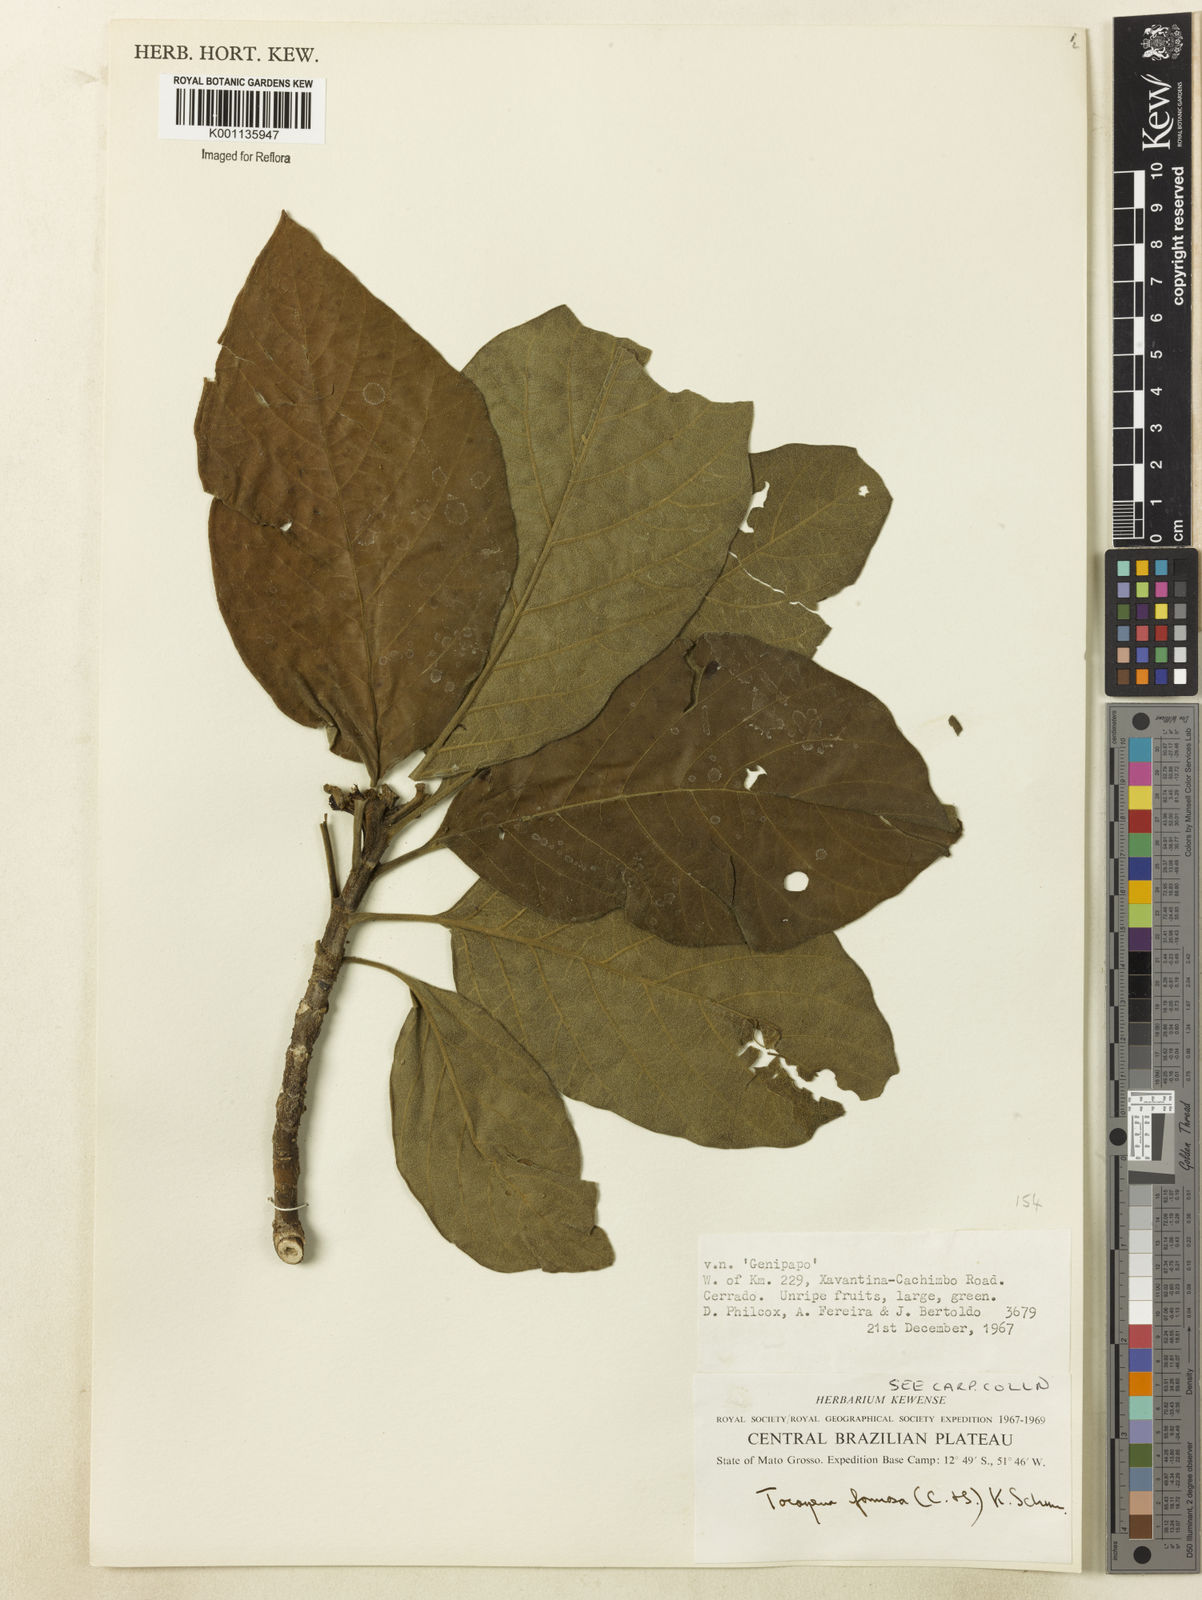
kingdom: Plantae
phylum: Tracheophyta
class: Magnoliopsida
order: Gentianales
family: Rubiaceae
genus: Tocoyena
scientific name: Tocoyena formosa
